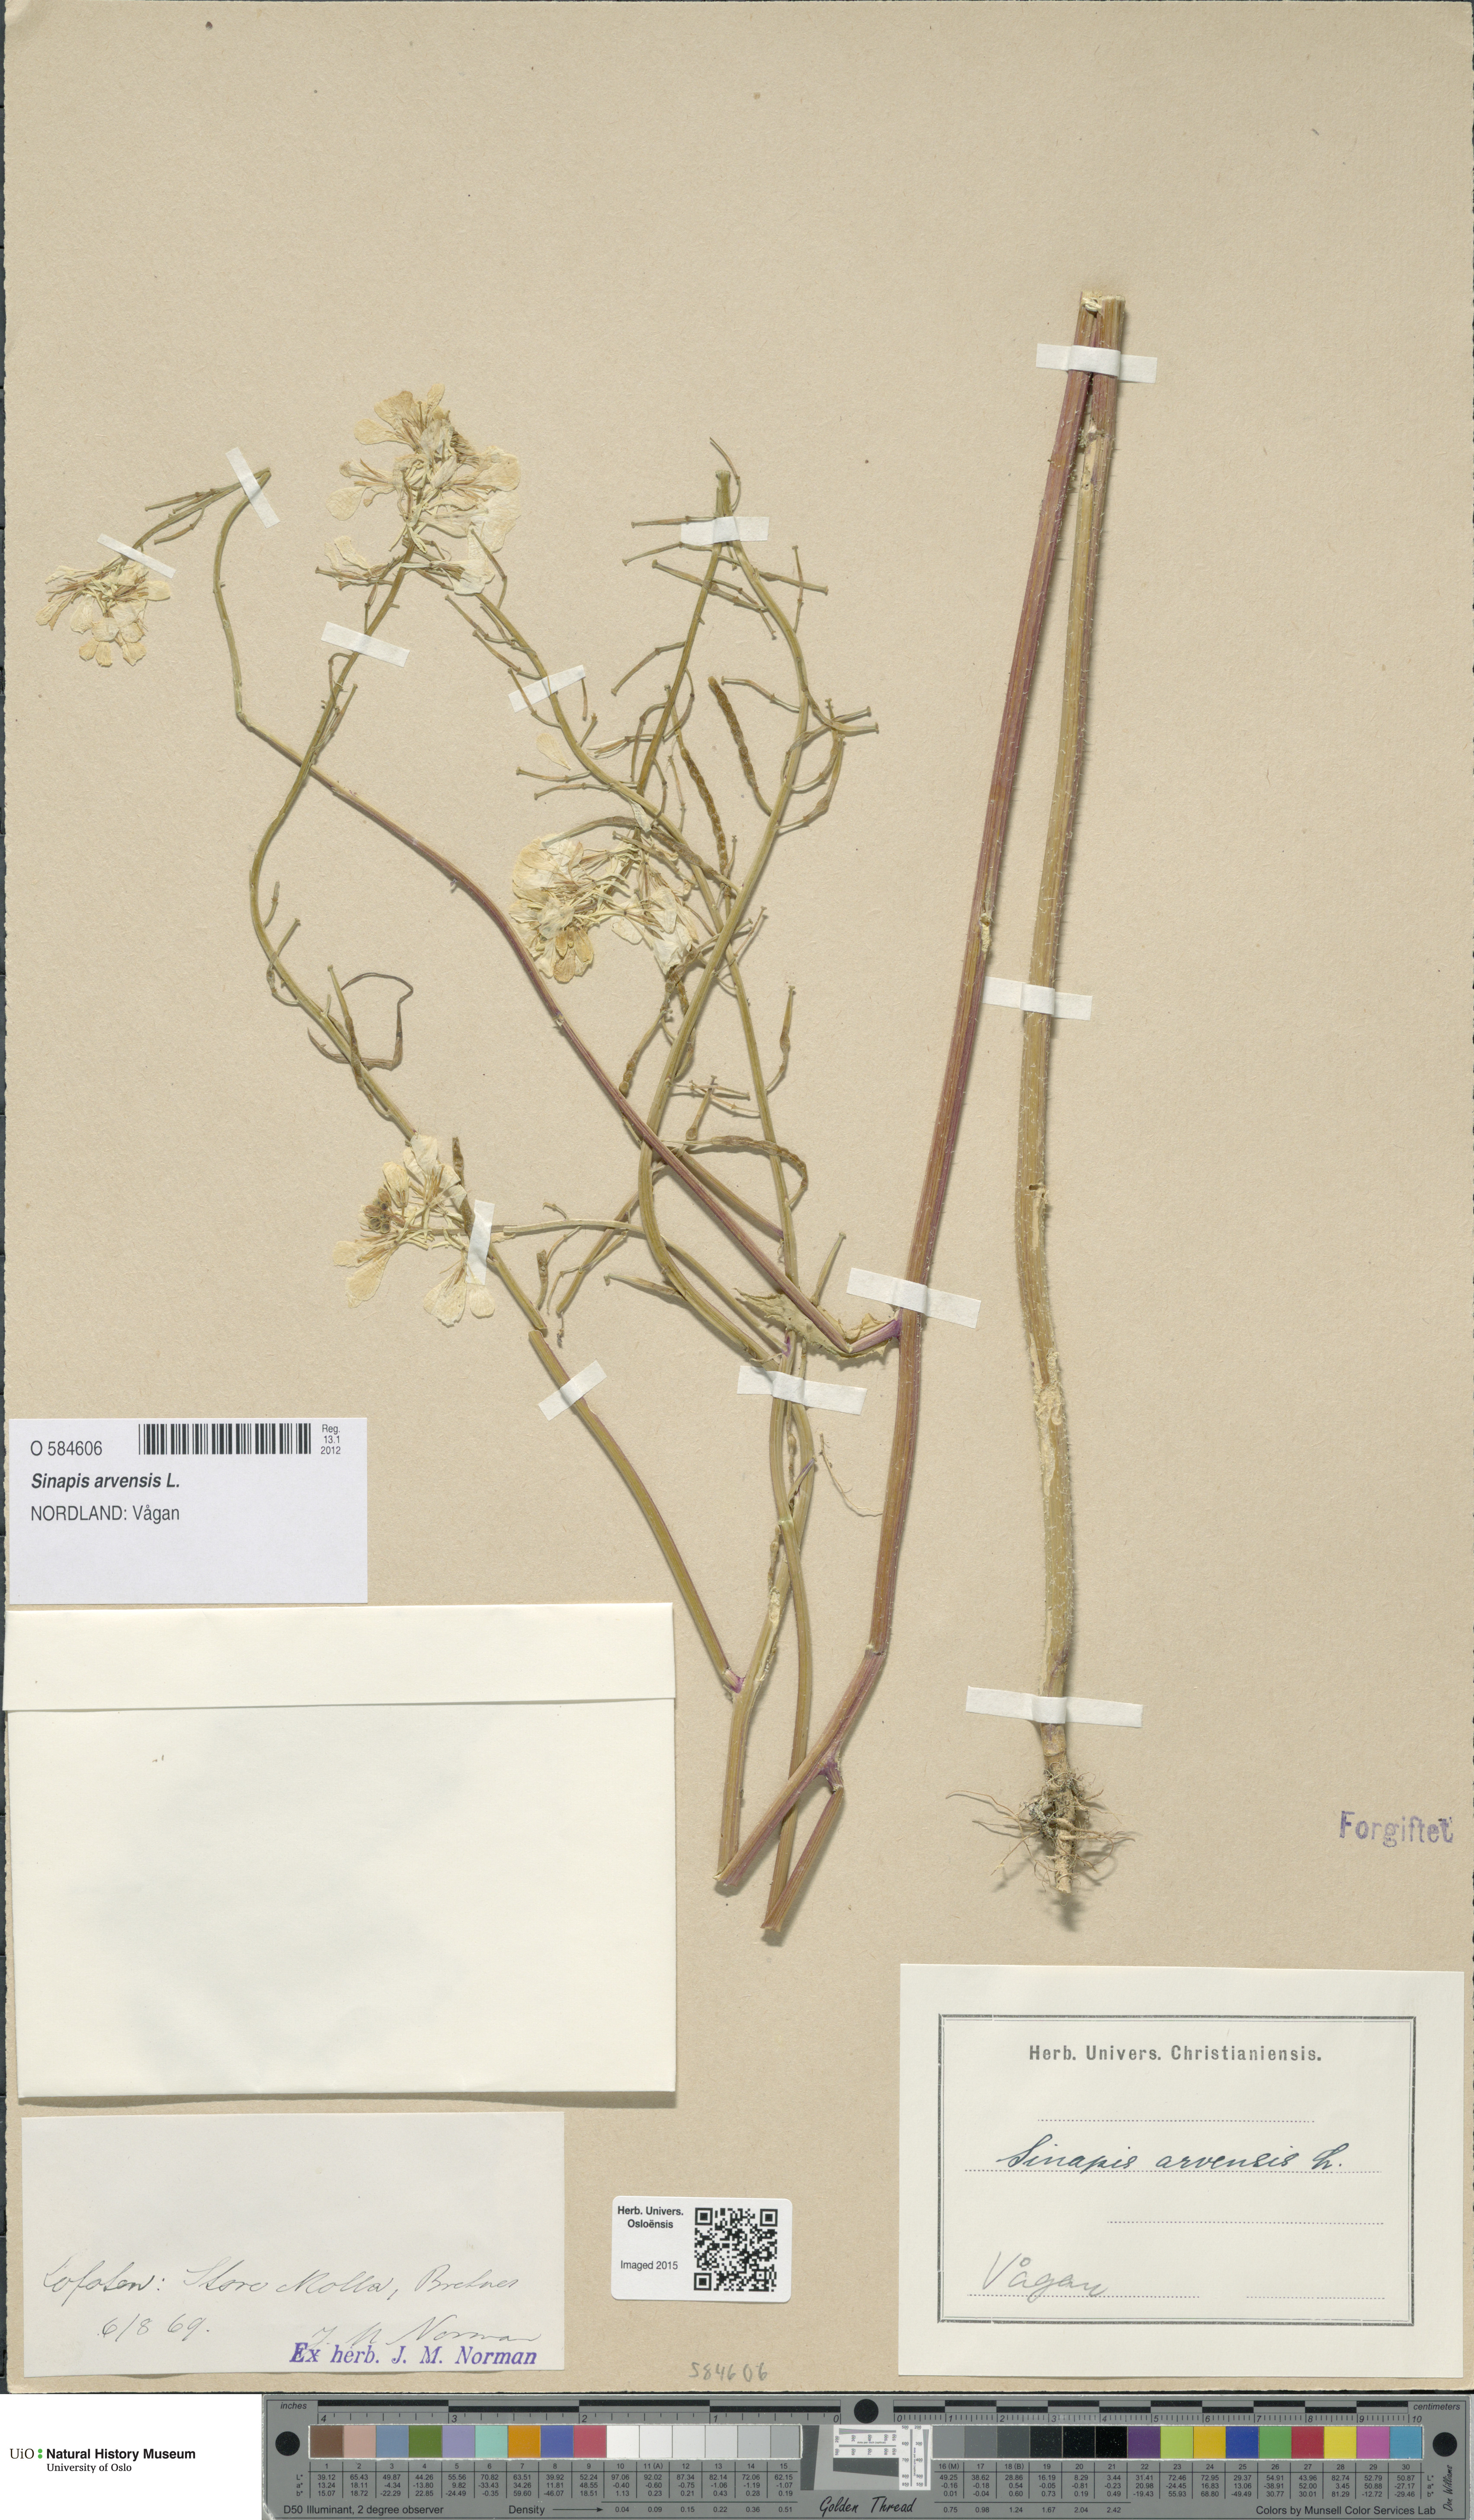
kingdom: Plantae
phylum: Tracheophyta
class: Magnoliopsida
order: Brassicales
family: Brassicaceae
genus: Sinapis
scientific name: Sinapis arvensis
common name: Charlock
